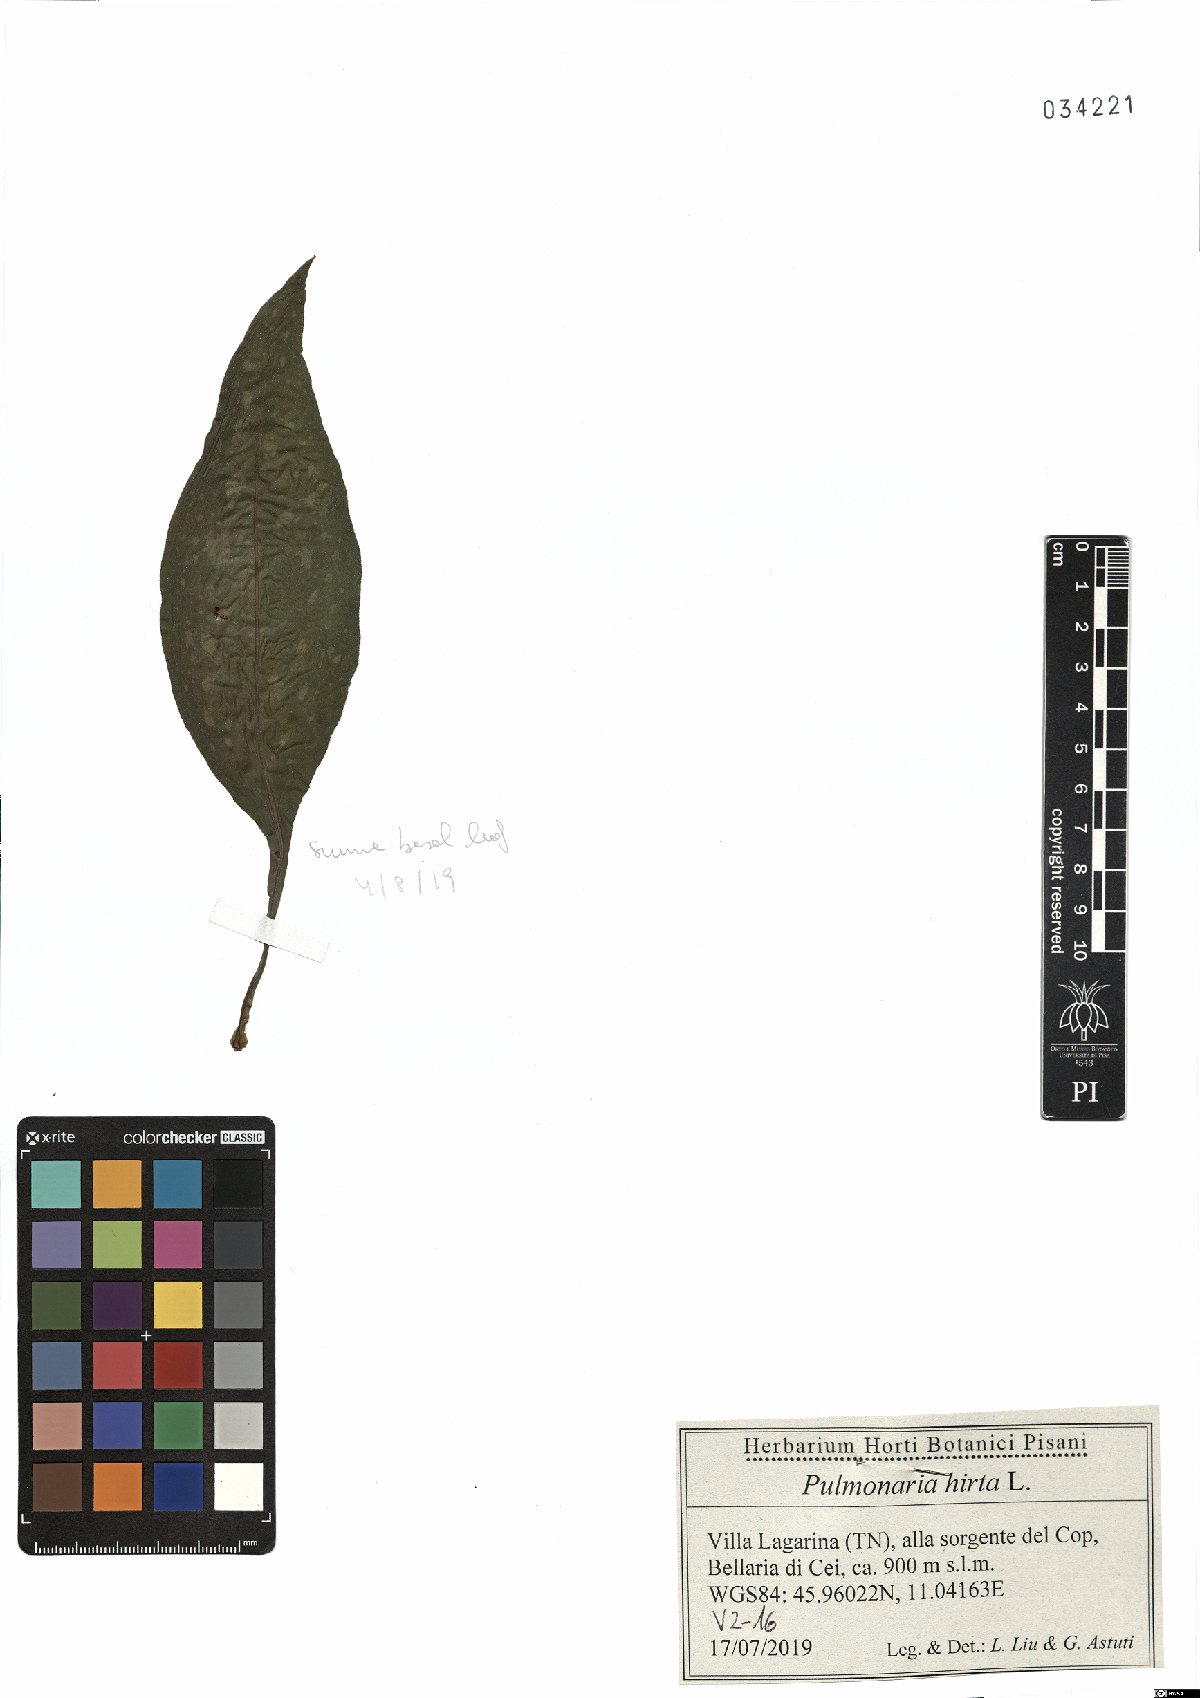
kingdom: Plantae
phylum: Tracheophyta
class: Magnoliopsida
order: Boraginales
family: Boraginaceae
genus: Pulmonaria
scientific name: Pulmonaria hirta
